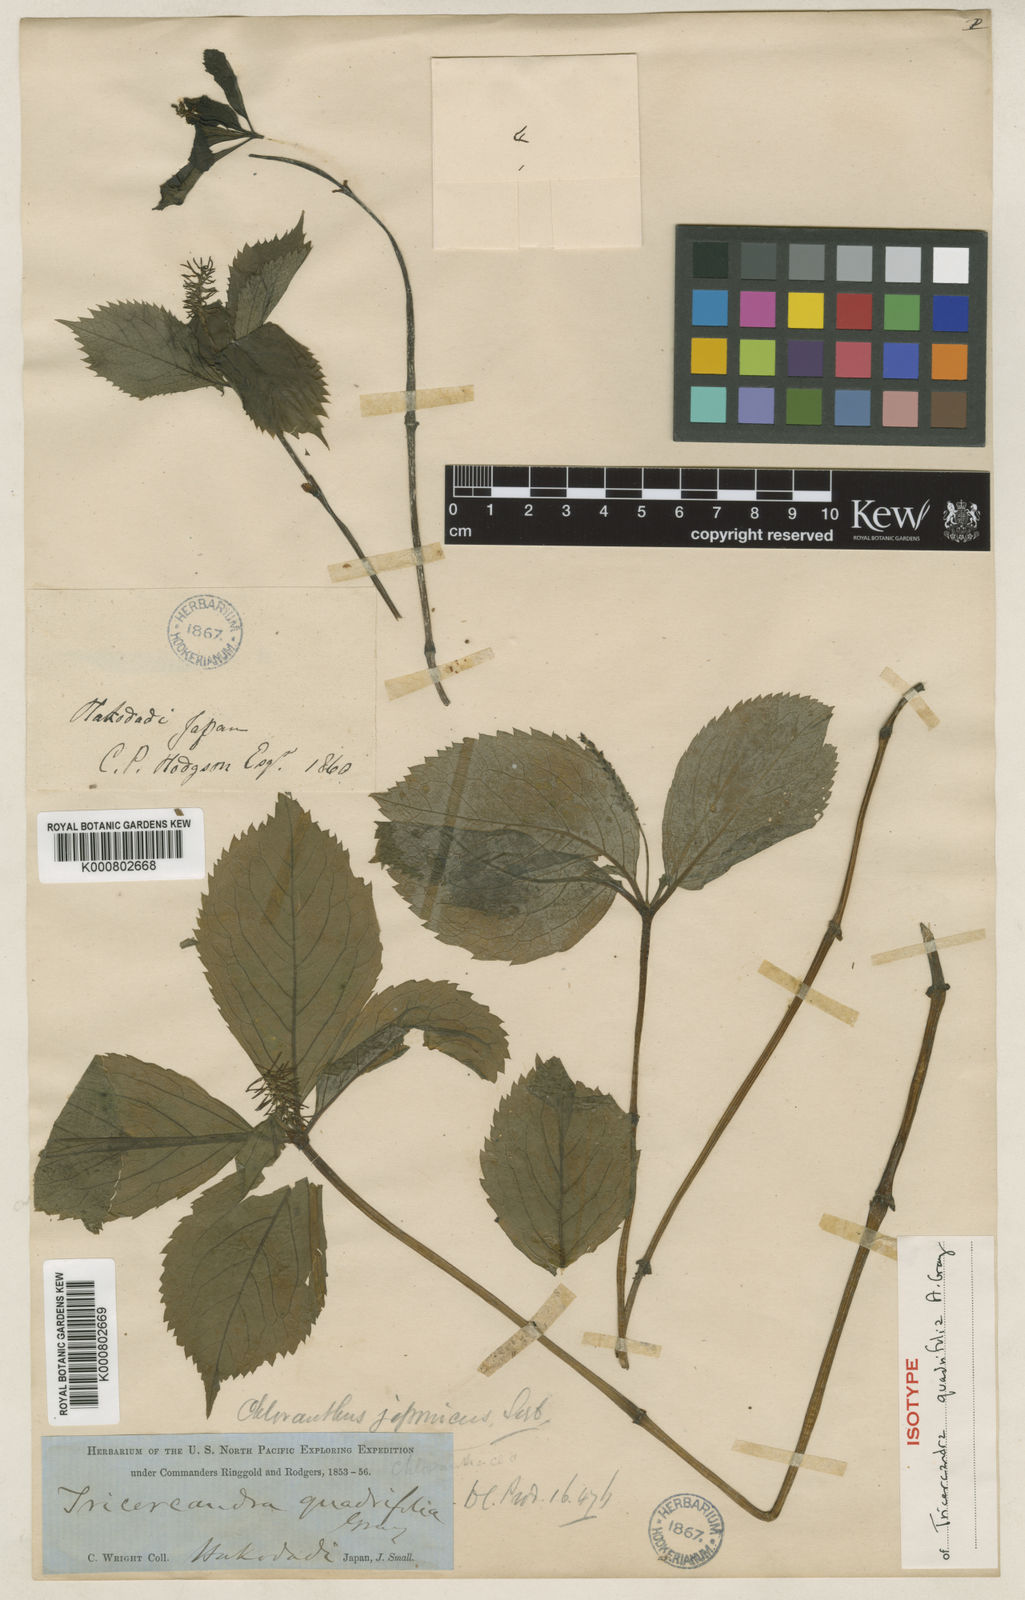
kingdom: Plantae
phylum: Tracheophyta
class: Magnoliopsida
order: Chloranthales
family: Chloranthaceae
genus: Chloranthus
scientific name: Chloranthus japonicus
